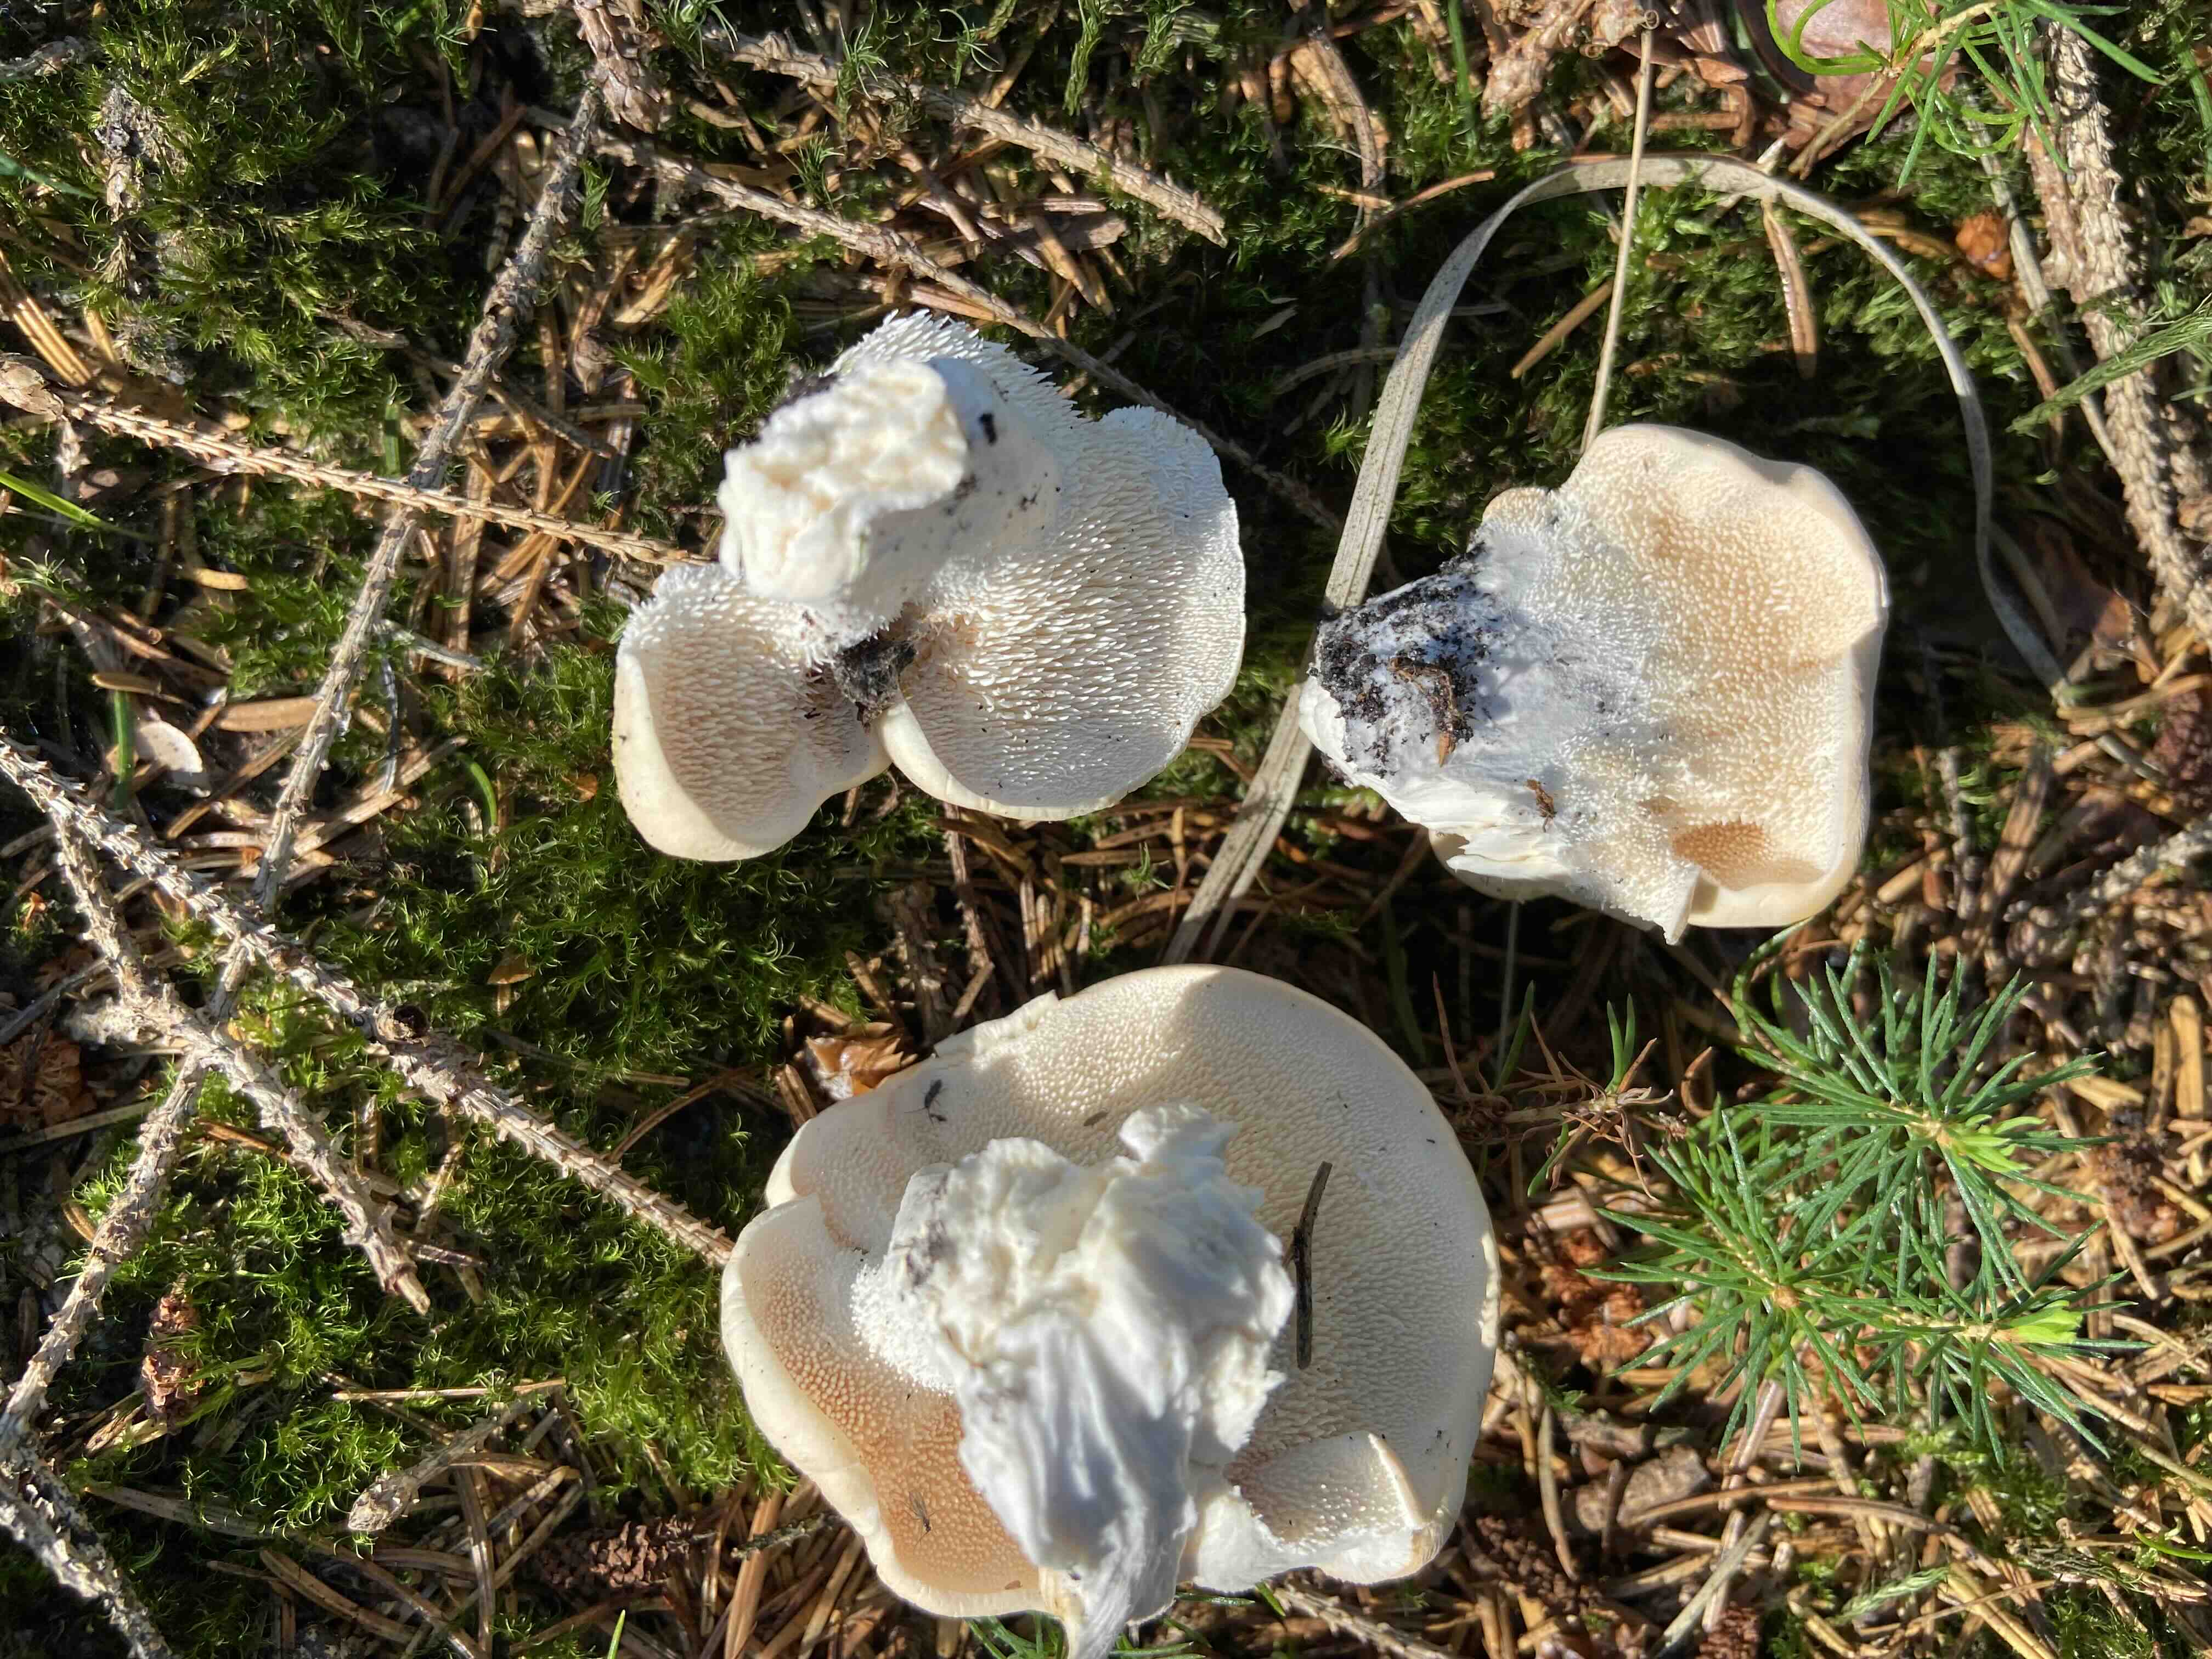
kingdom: Fungi
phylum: Basidiomycota
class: Agaricomycetes
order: Cantharellales
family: Hydnaceae
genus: Hydnum
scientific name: Hydnum repandum
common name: almindelig pigsvamp
